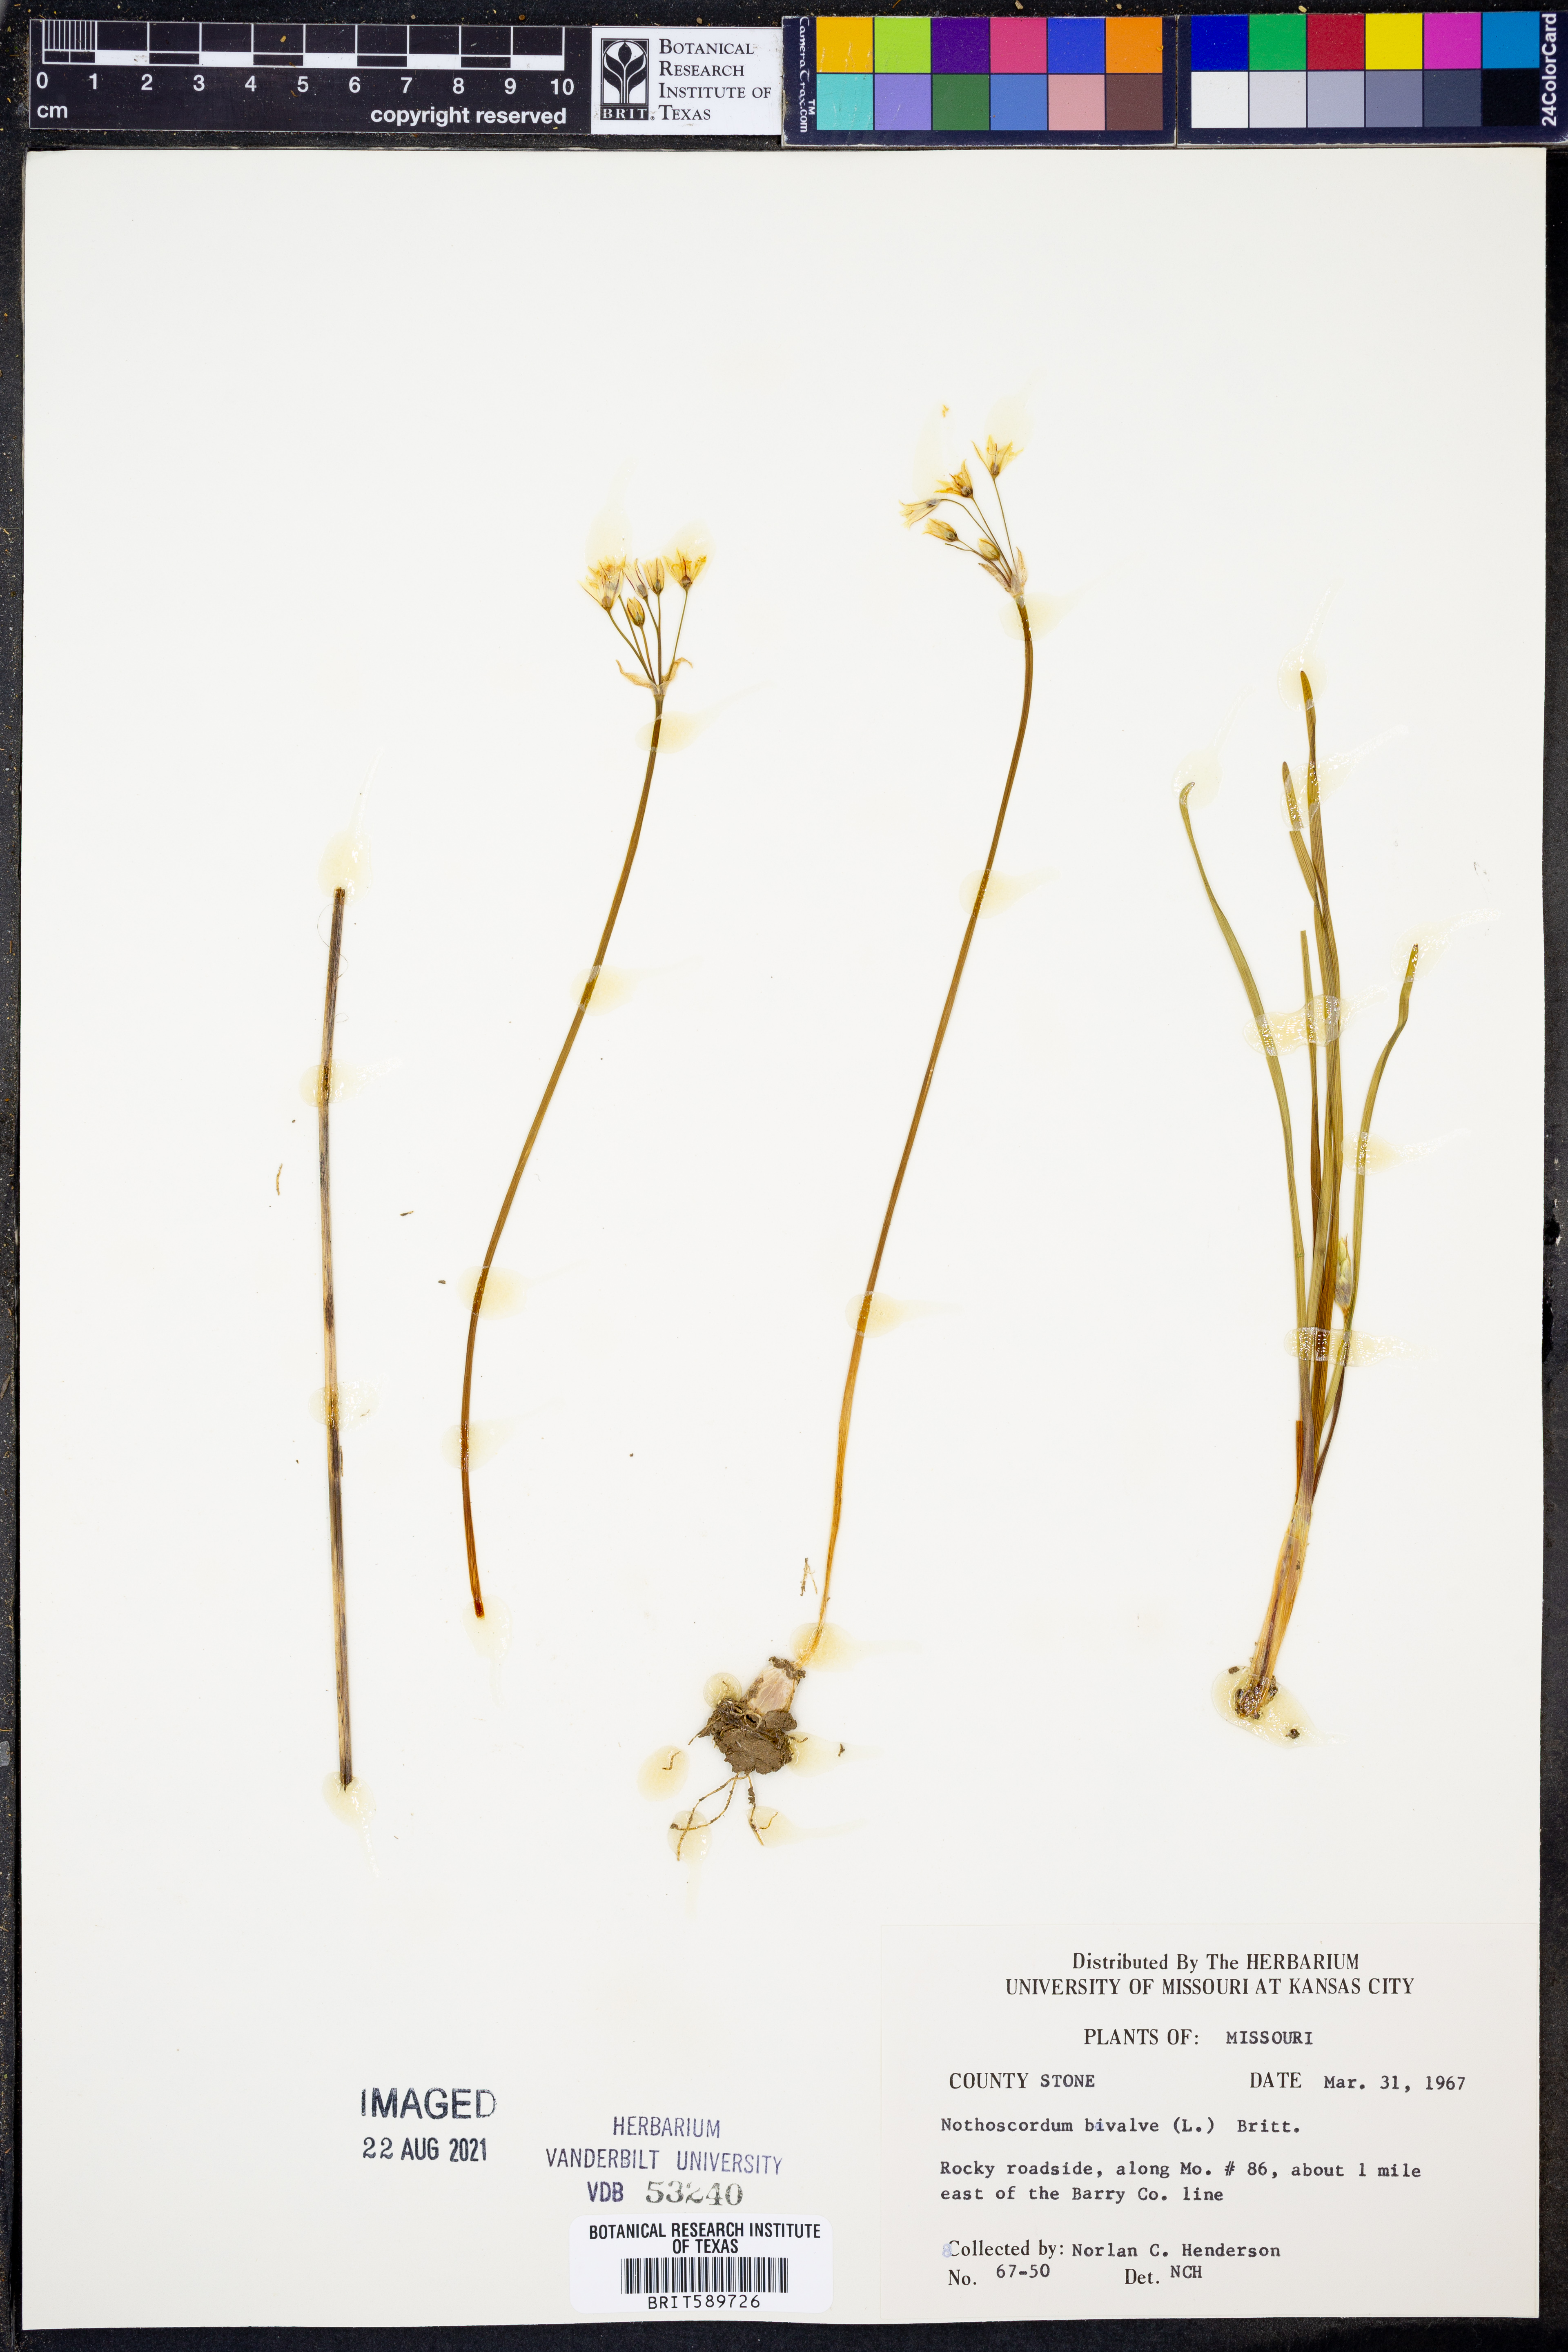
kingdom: Plantae
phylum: Tracheophyta
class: Liliopsida
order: Asparagales
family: Amaryllidaceae
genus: Nothoscordum
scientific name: Nothoscordum bivalve
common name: Crow-poison
